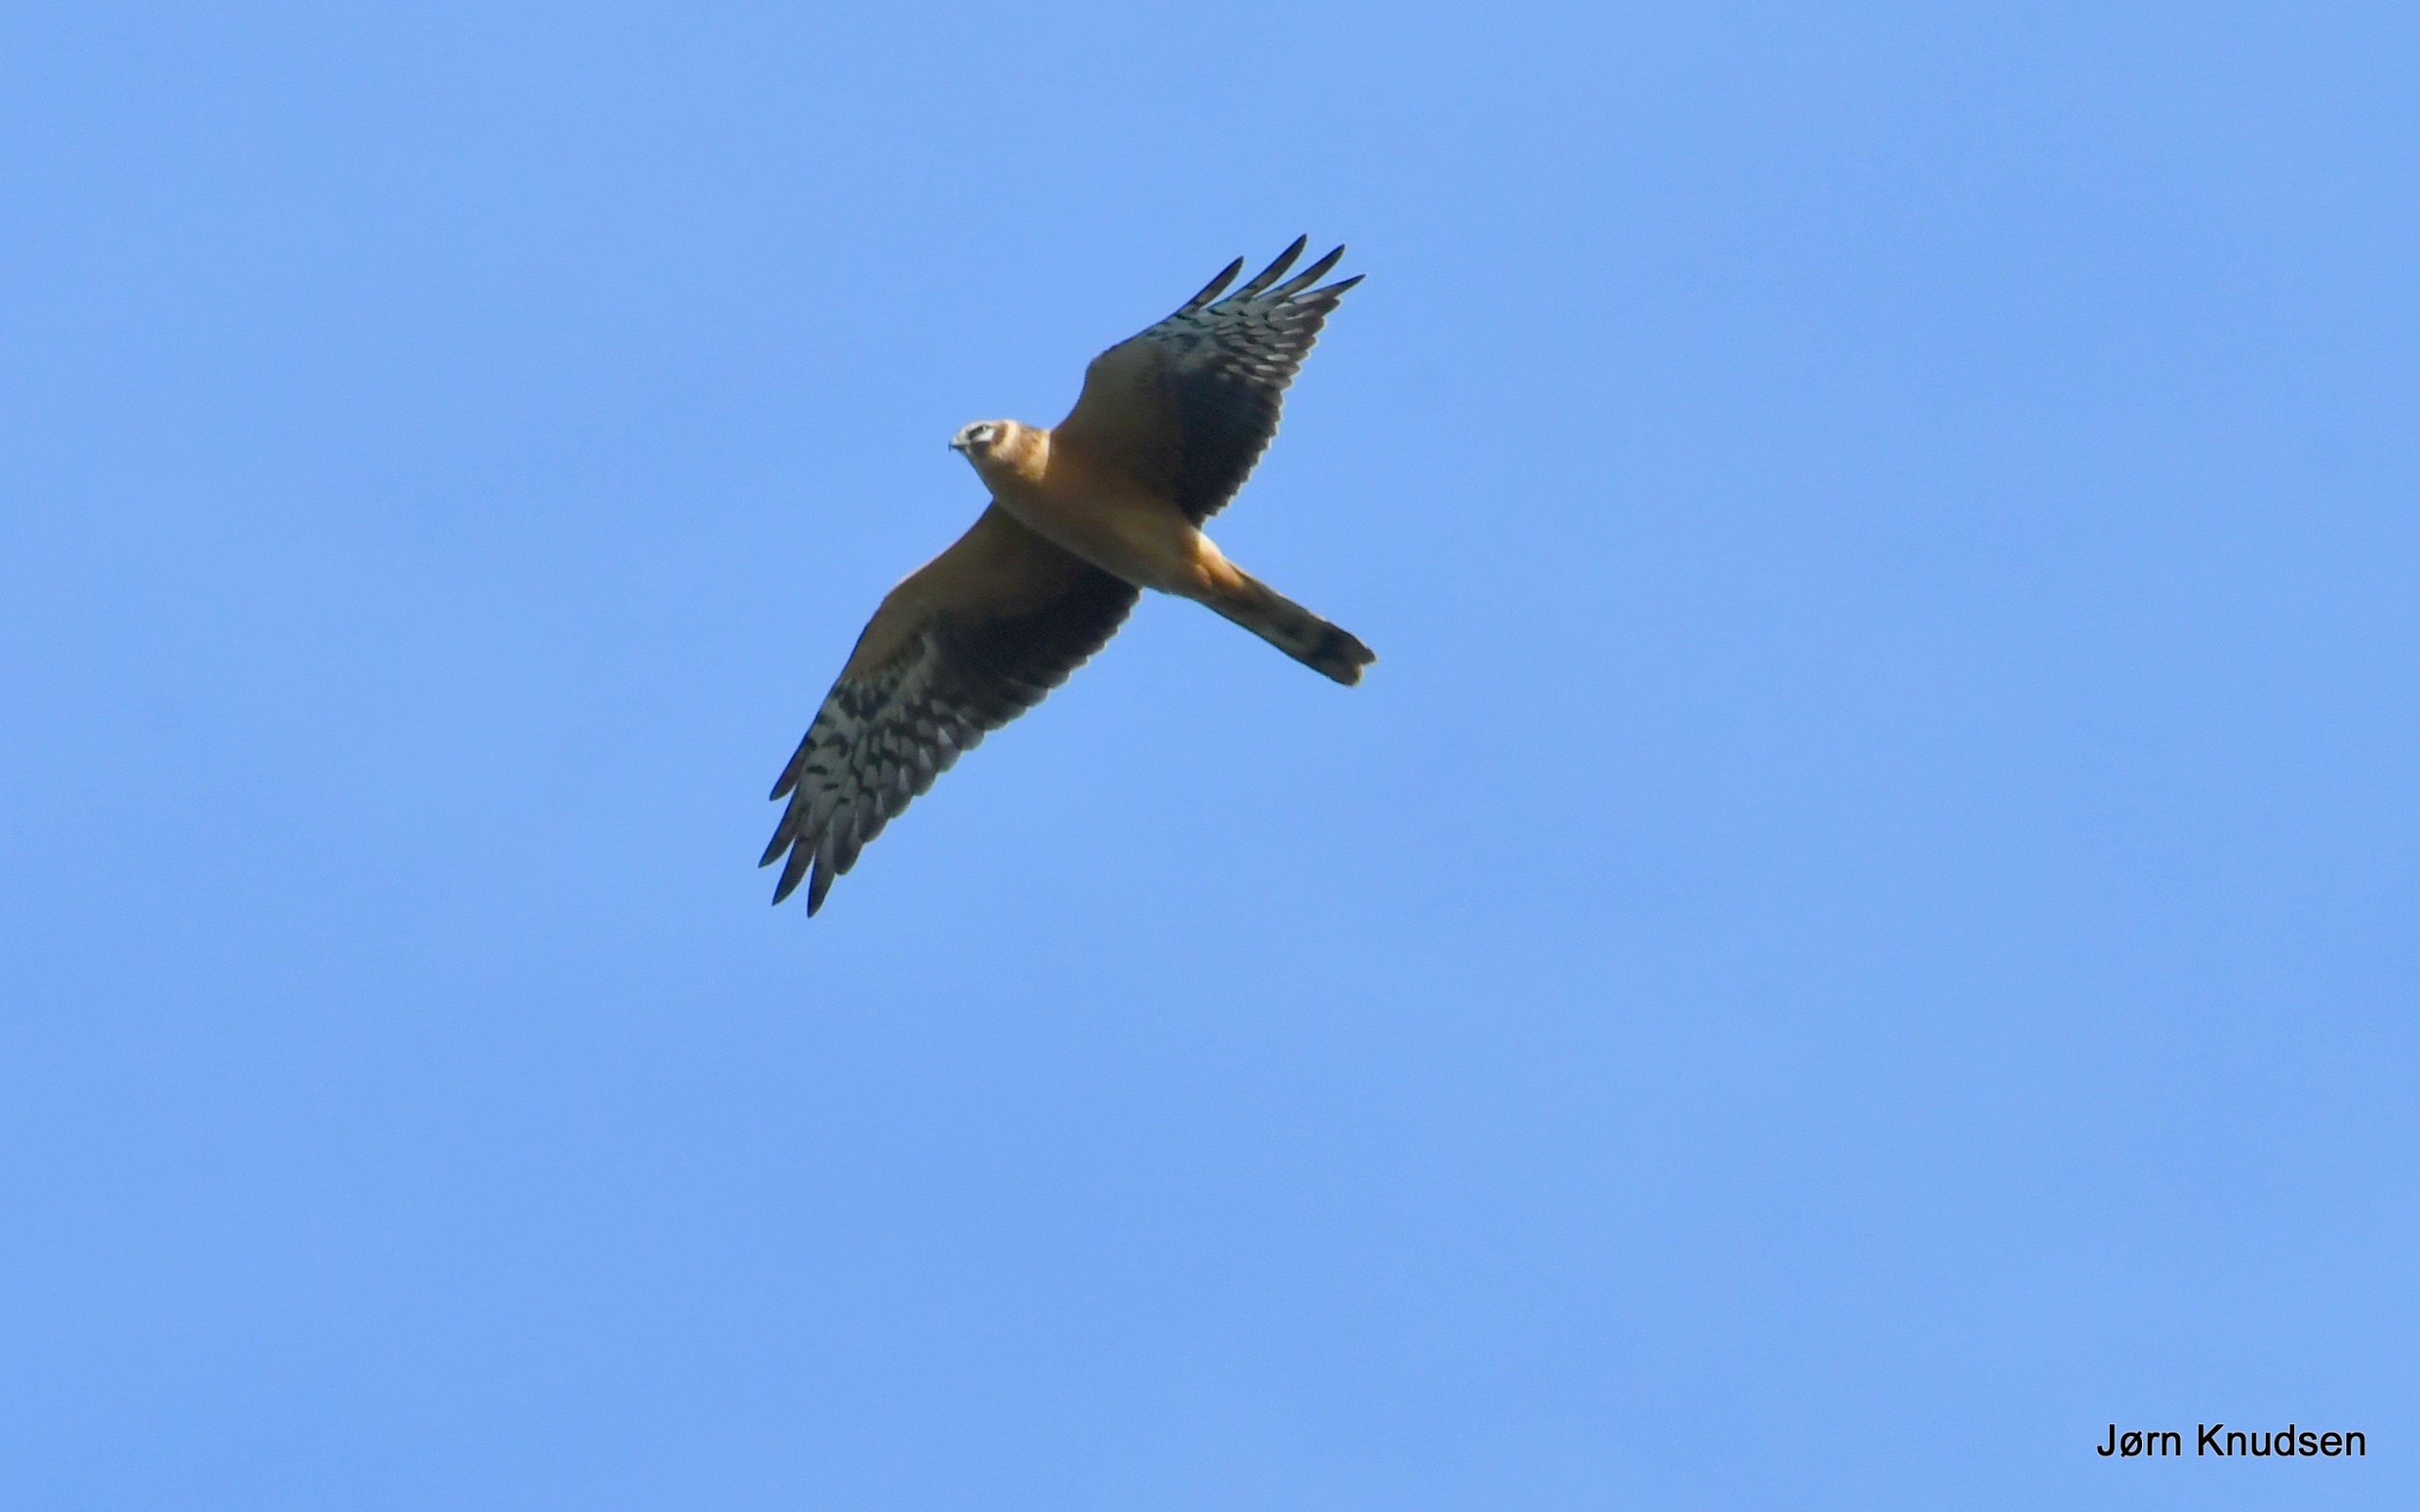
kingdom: Animalia
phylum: Chordata
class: Aves
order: Accipitriformes
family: Accipitridae
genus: Circus
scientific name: Circus macrourus
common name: Steppehøg
